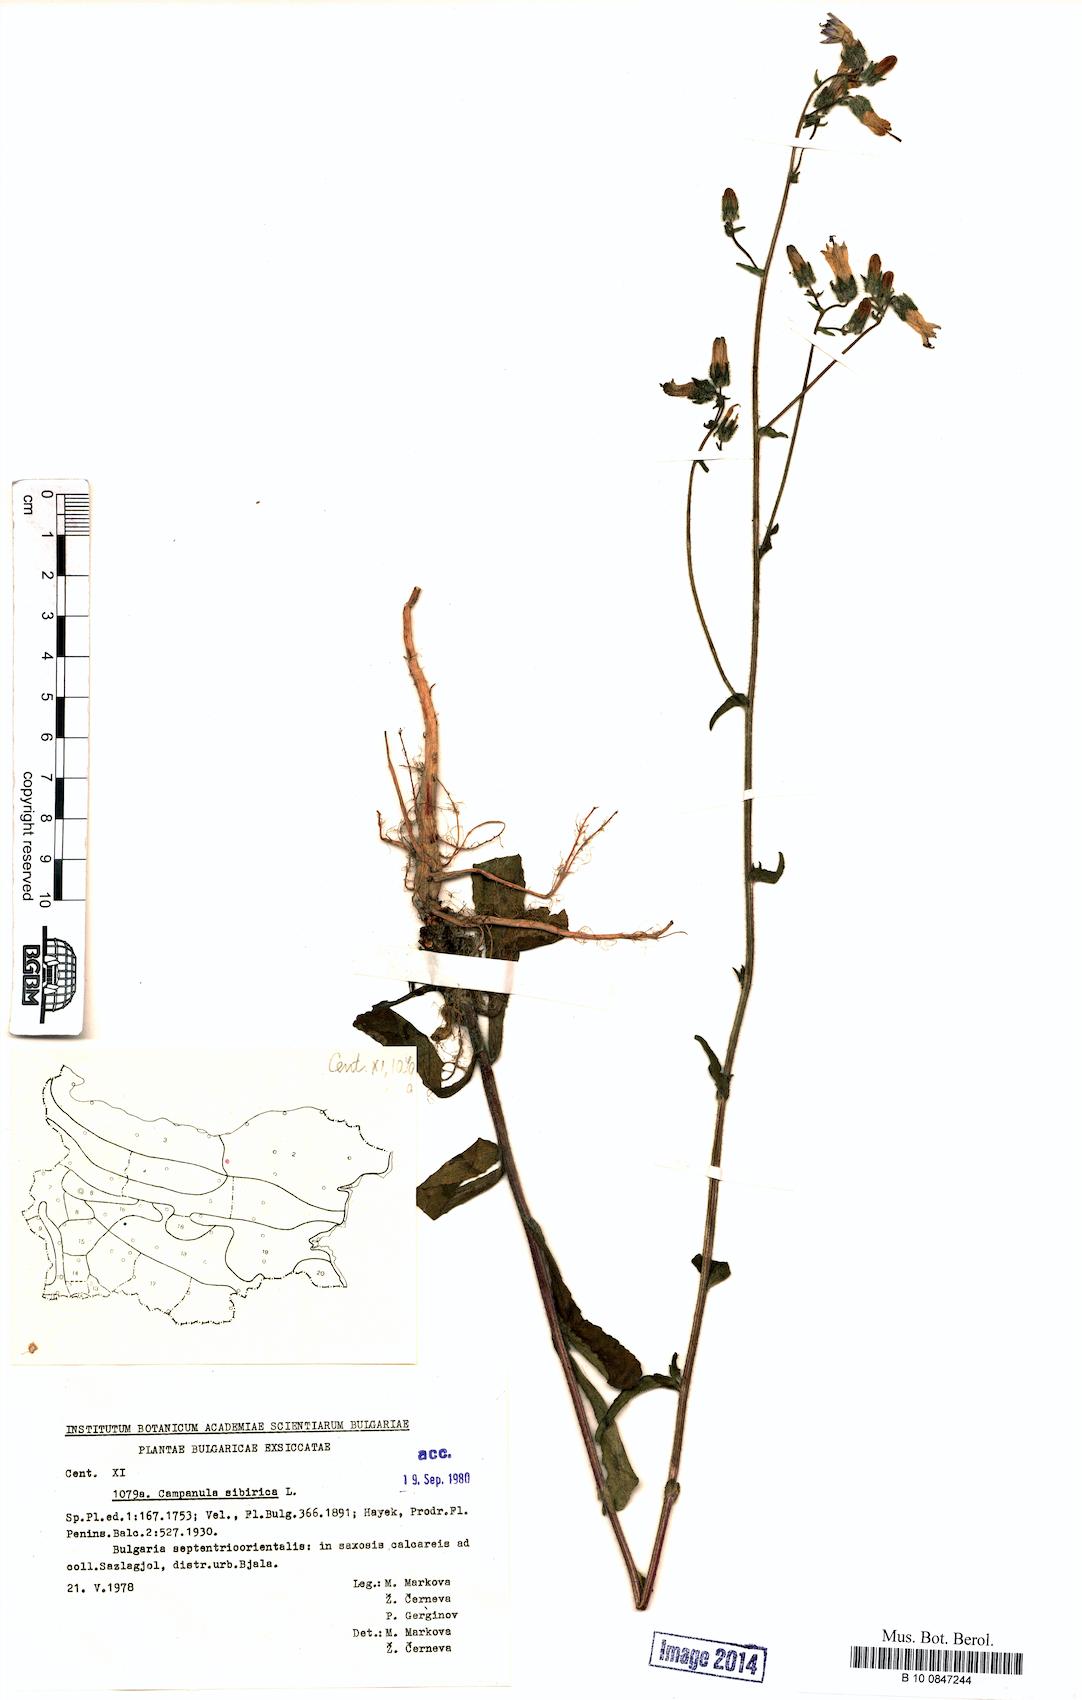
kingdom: Plantae
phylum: Tracheophyta
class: Magnoliopsida
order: Asterales
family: Campanulaceae
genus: Campanula
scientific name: Campanula sibirica
